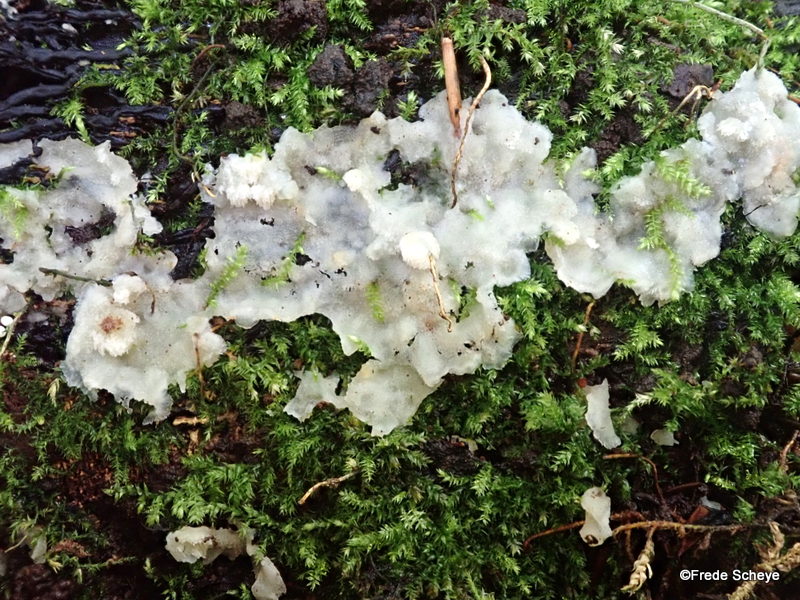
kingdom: Fungi
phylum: Basidiomycota
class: Agaricomycetes
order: Polyporales
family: Meruliaceae
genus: Physisporinus
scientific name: Physisporinus vitreus
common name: mastesvamp
